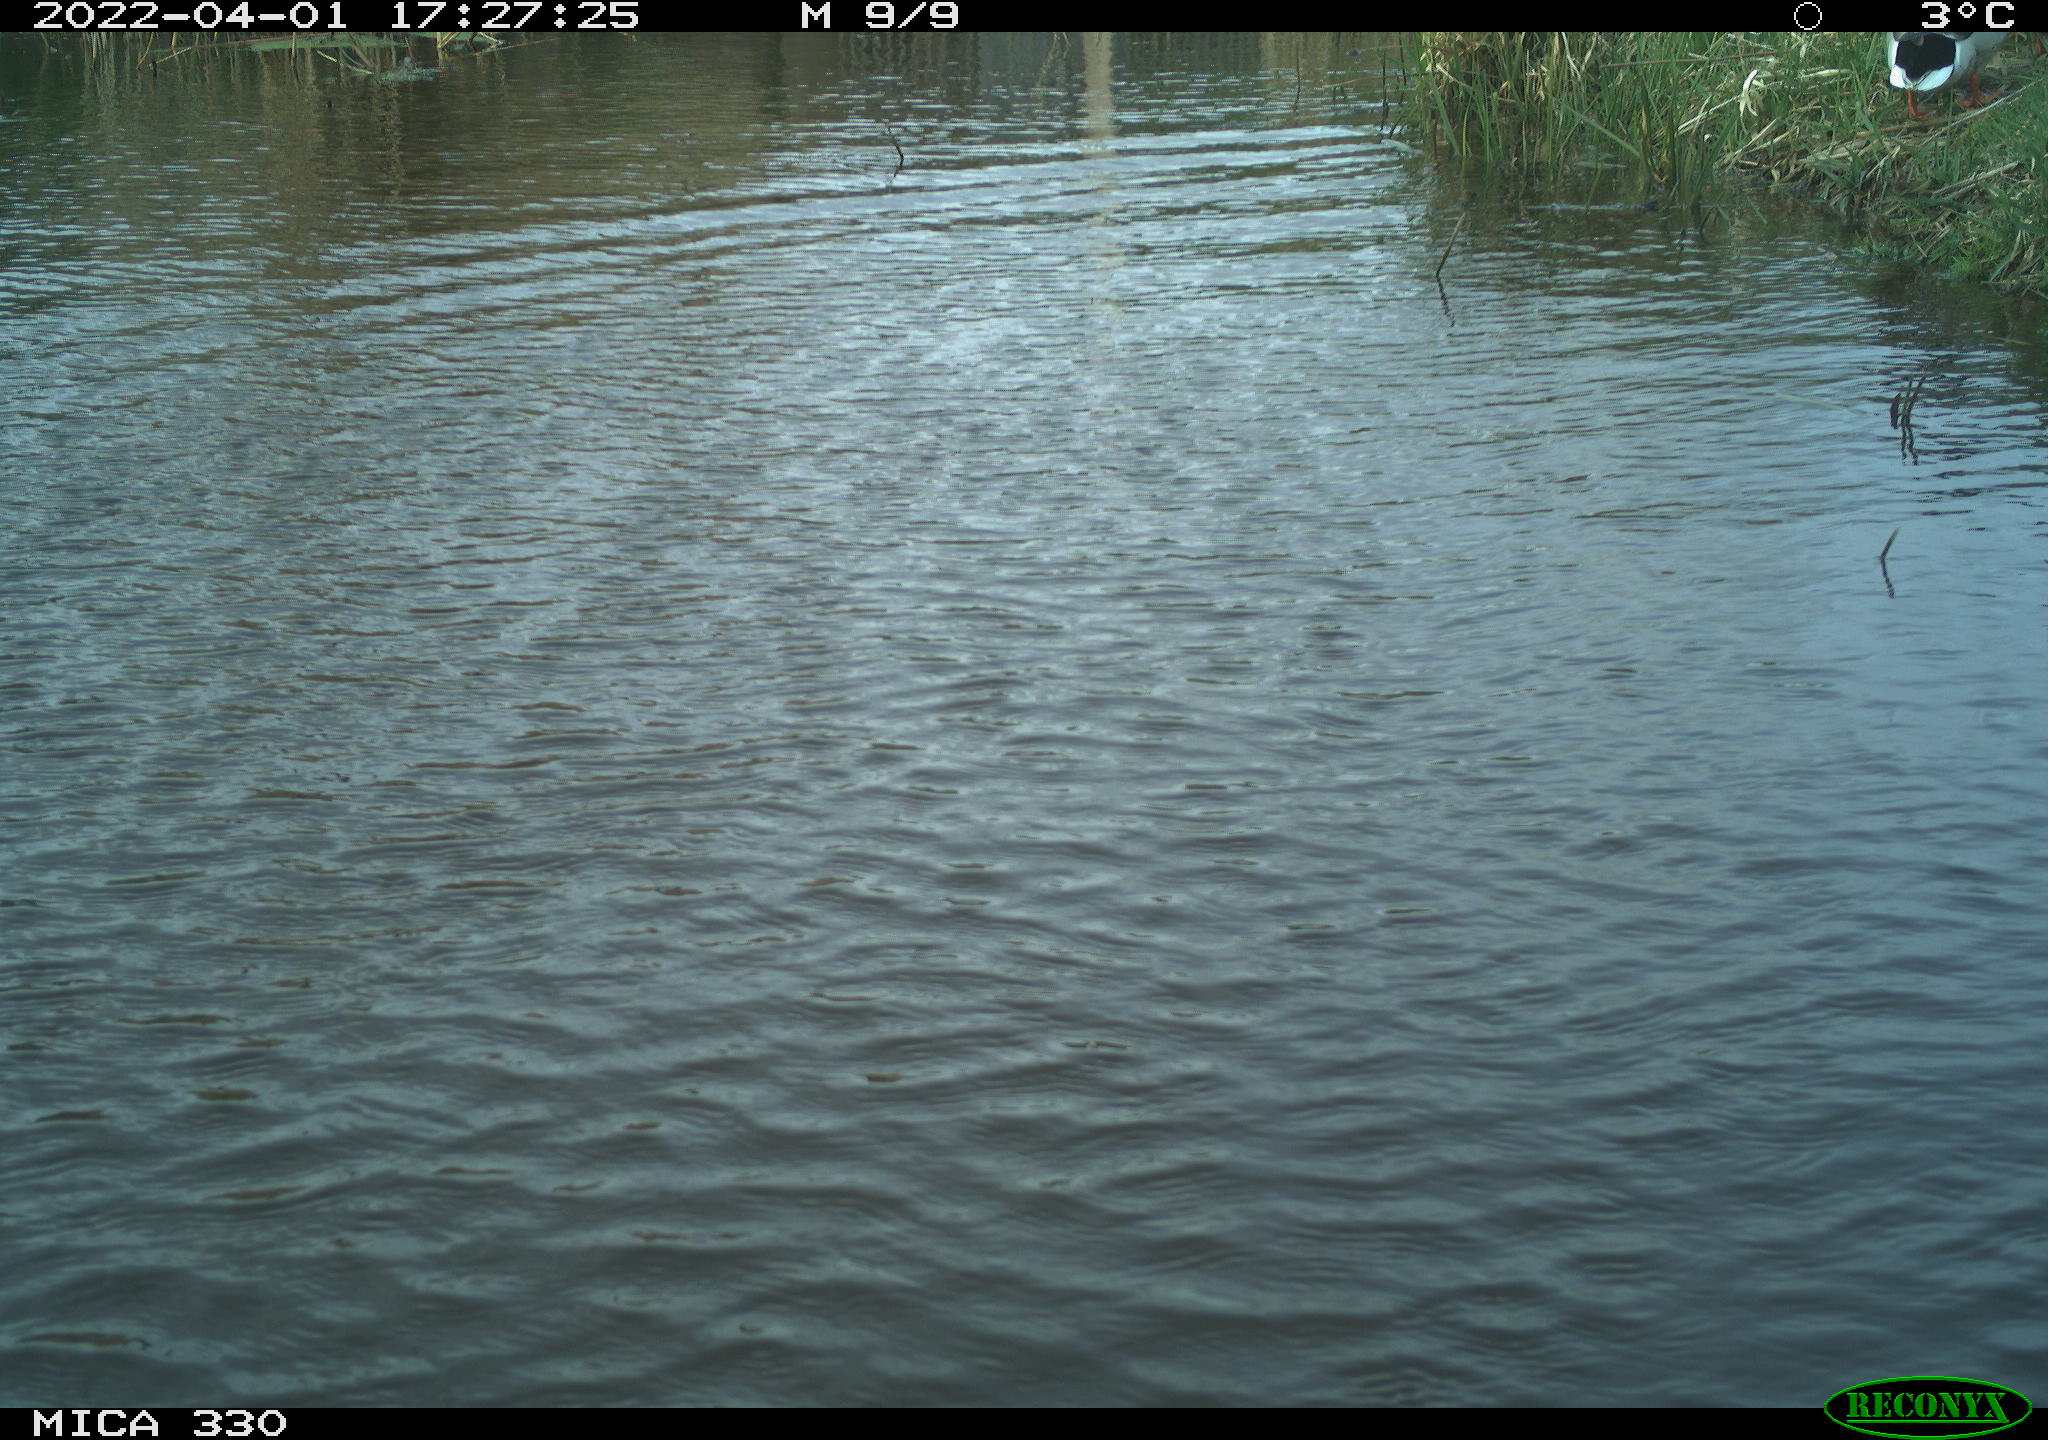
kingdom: Animalia
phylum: Chordata
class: Aves
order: Anseriformes
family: Anatidae
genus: Anas
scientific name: Anas platyrhynchos
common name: Mallard
